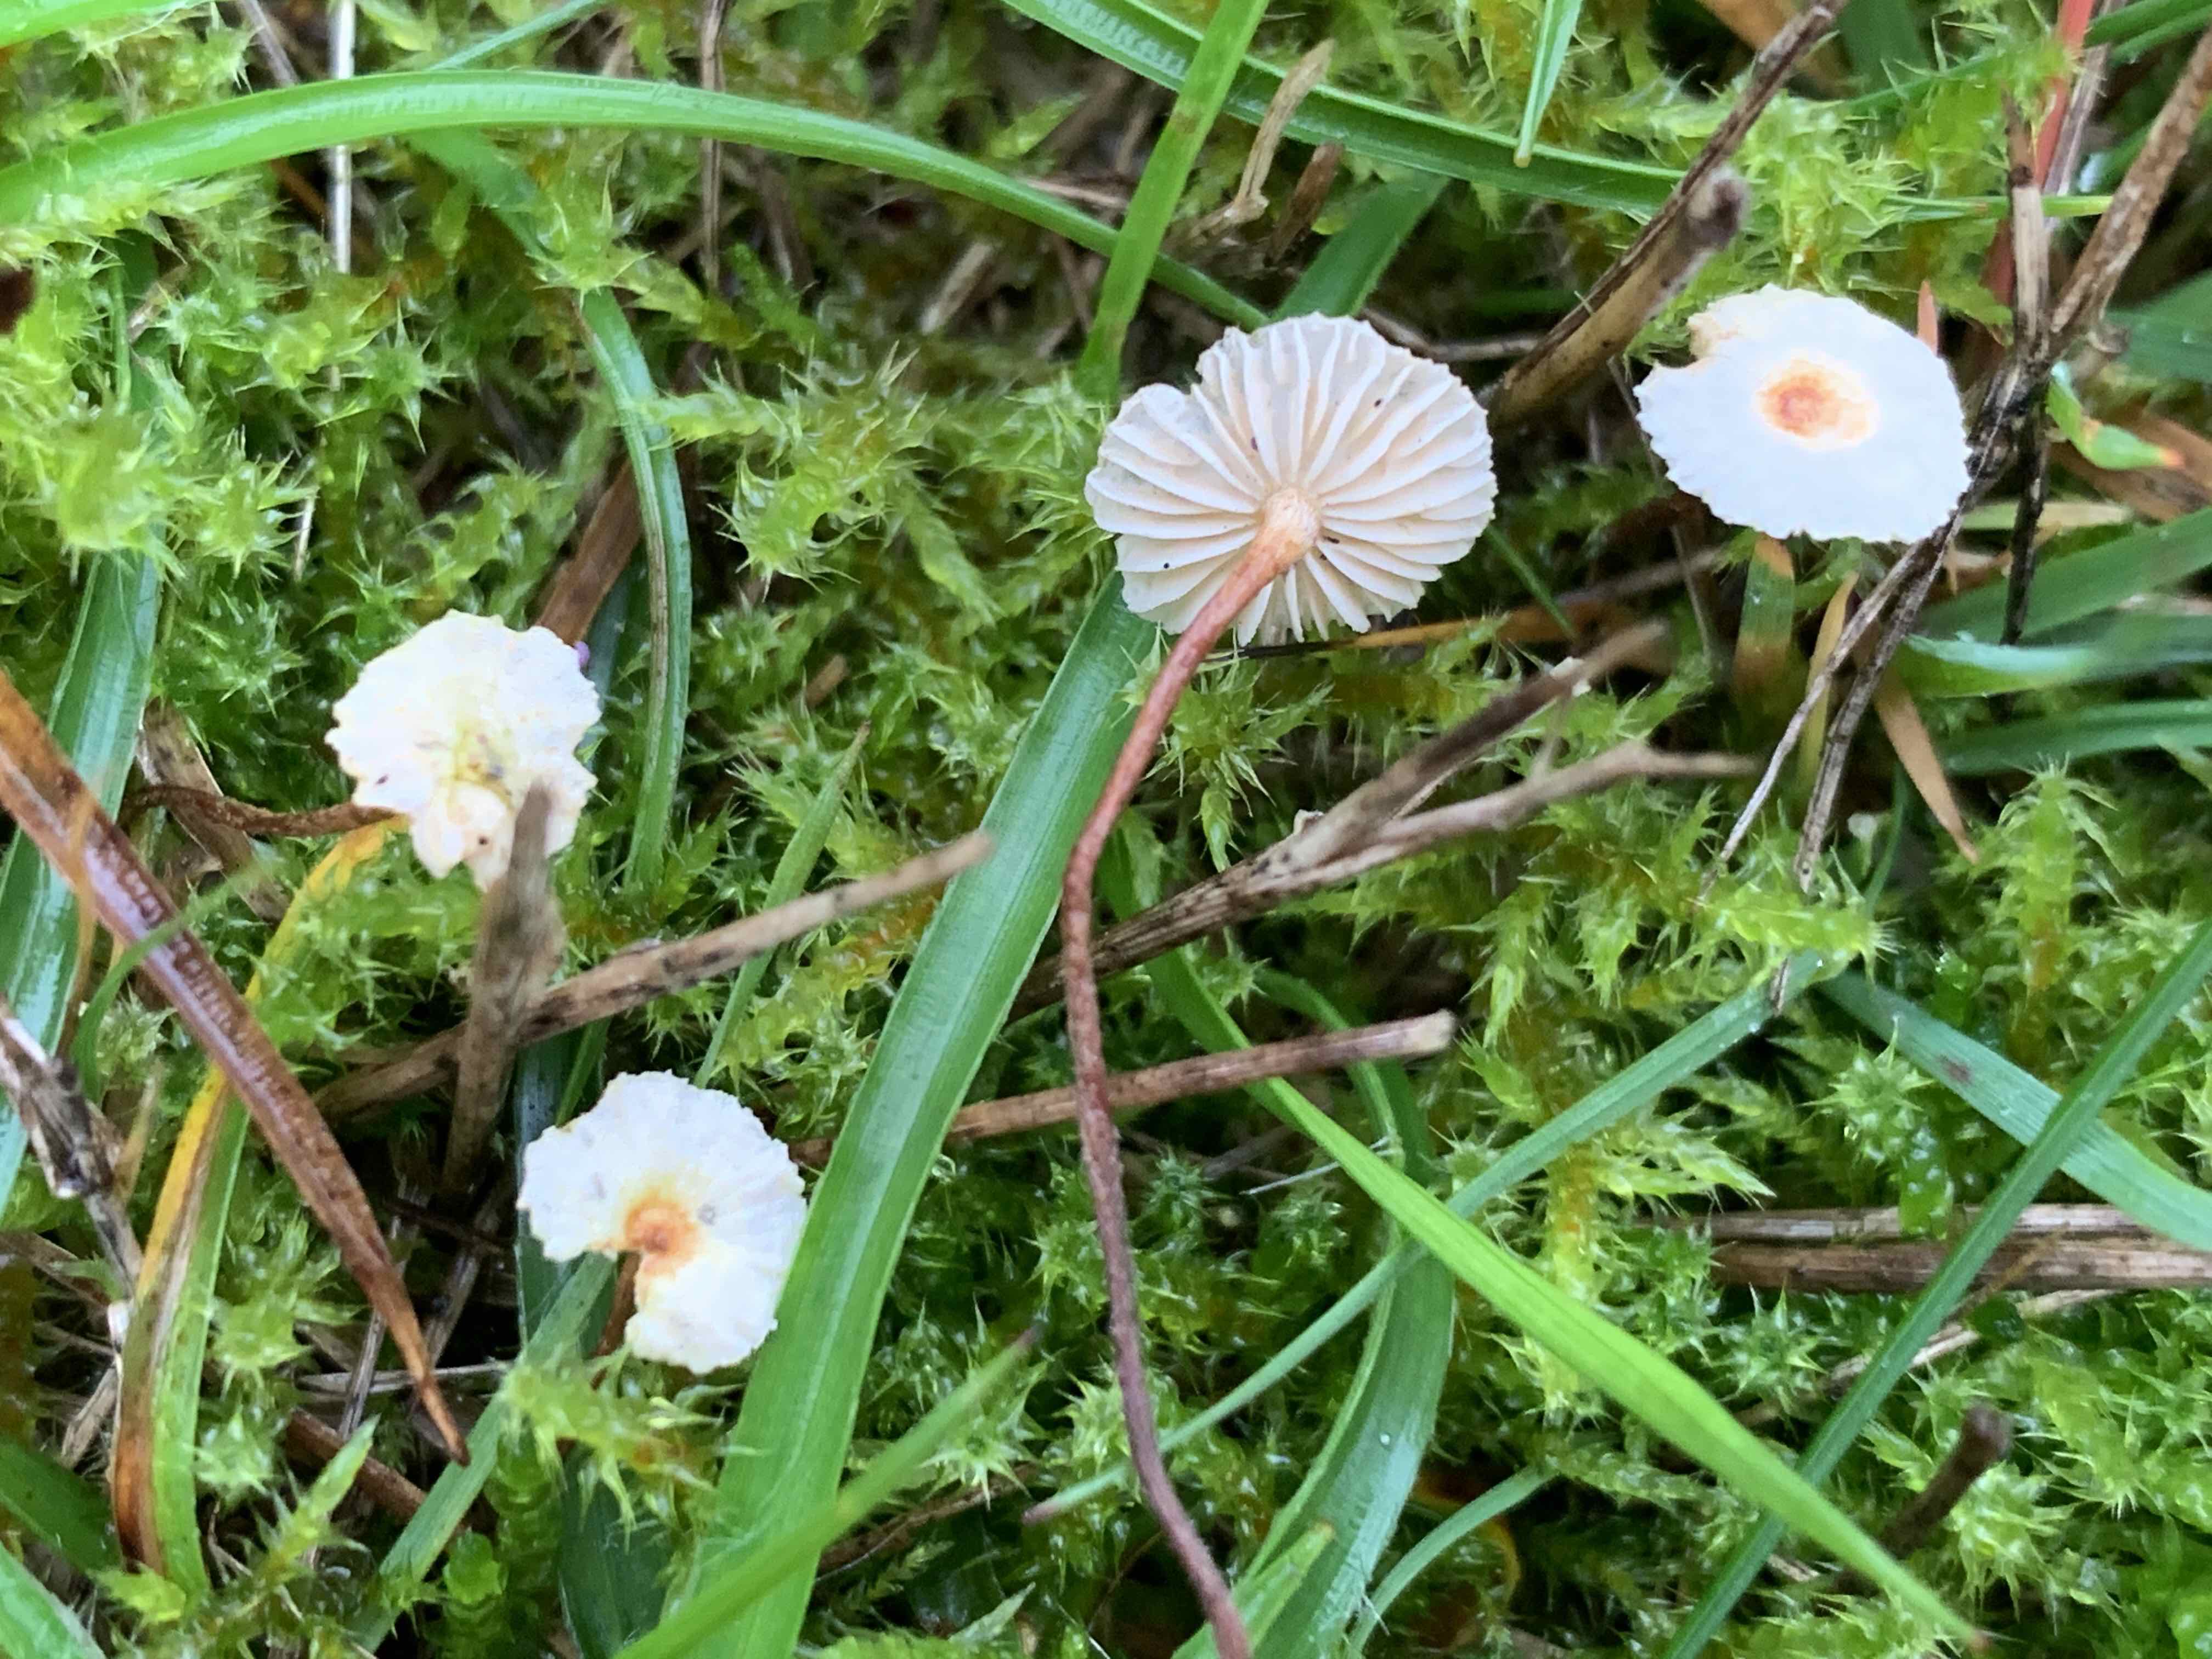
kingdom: Fungi
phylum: Basidiomycota
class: Agaricomycetes
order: Agaricales
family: Marasmiaceae
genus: Crinipellis
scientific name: Crinipellis scabella
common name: børstefod
